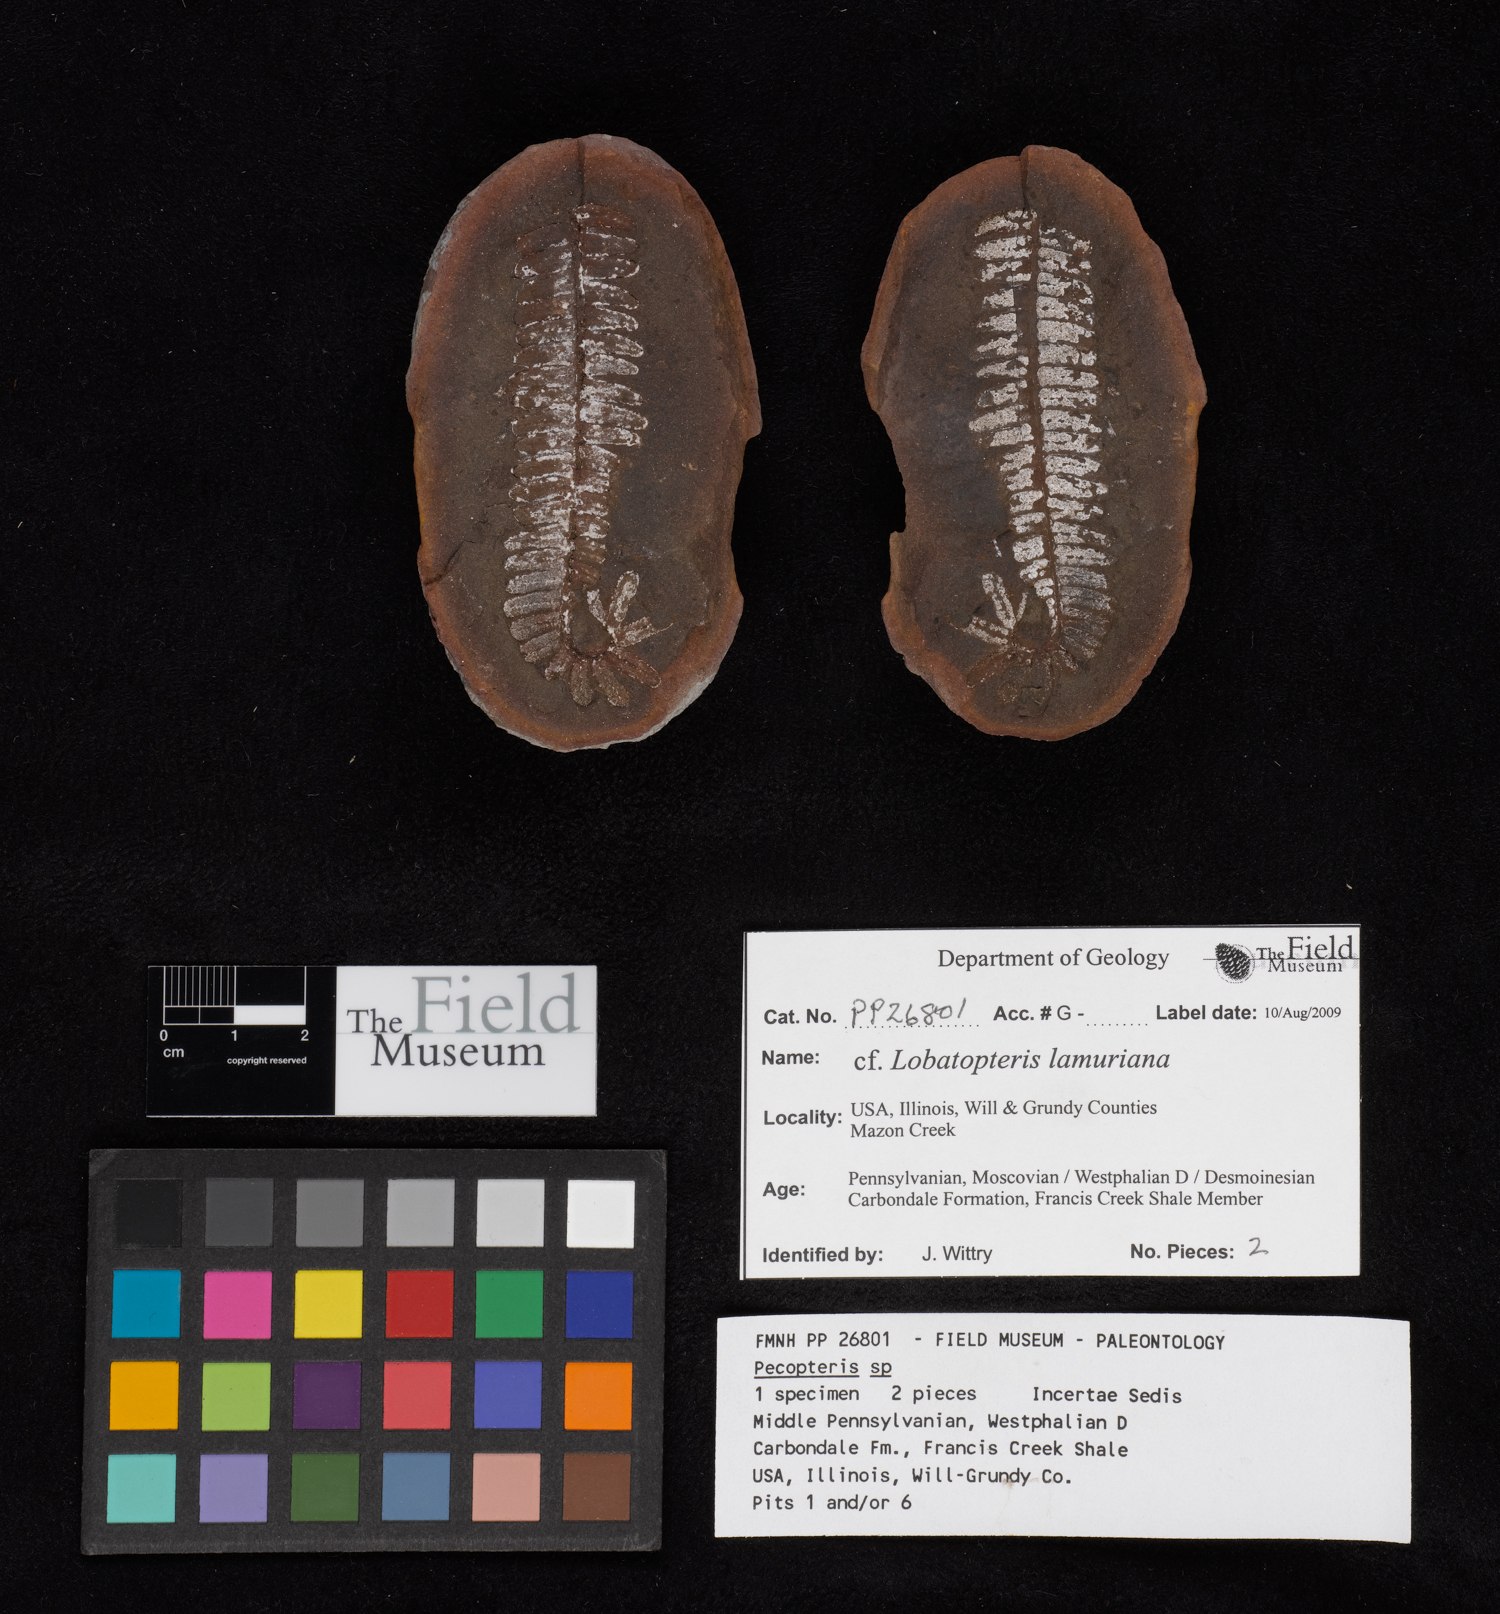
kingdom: Plantae
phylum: Tracheophyta
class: Polypodiopsida
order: Marattiales
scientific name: Marattiales
